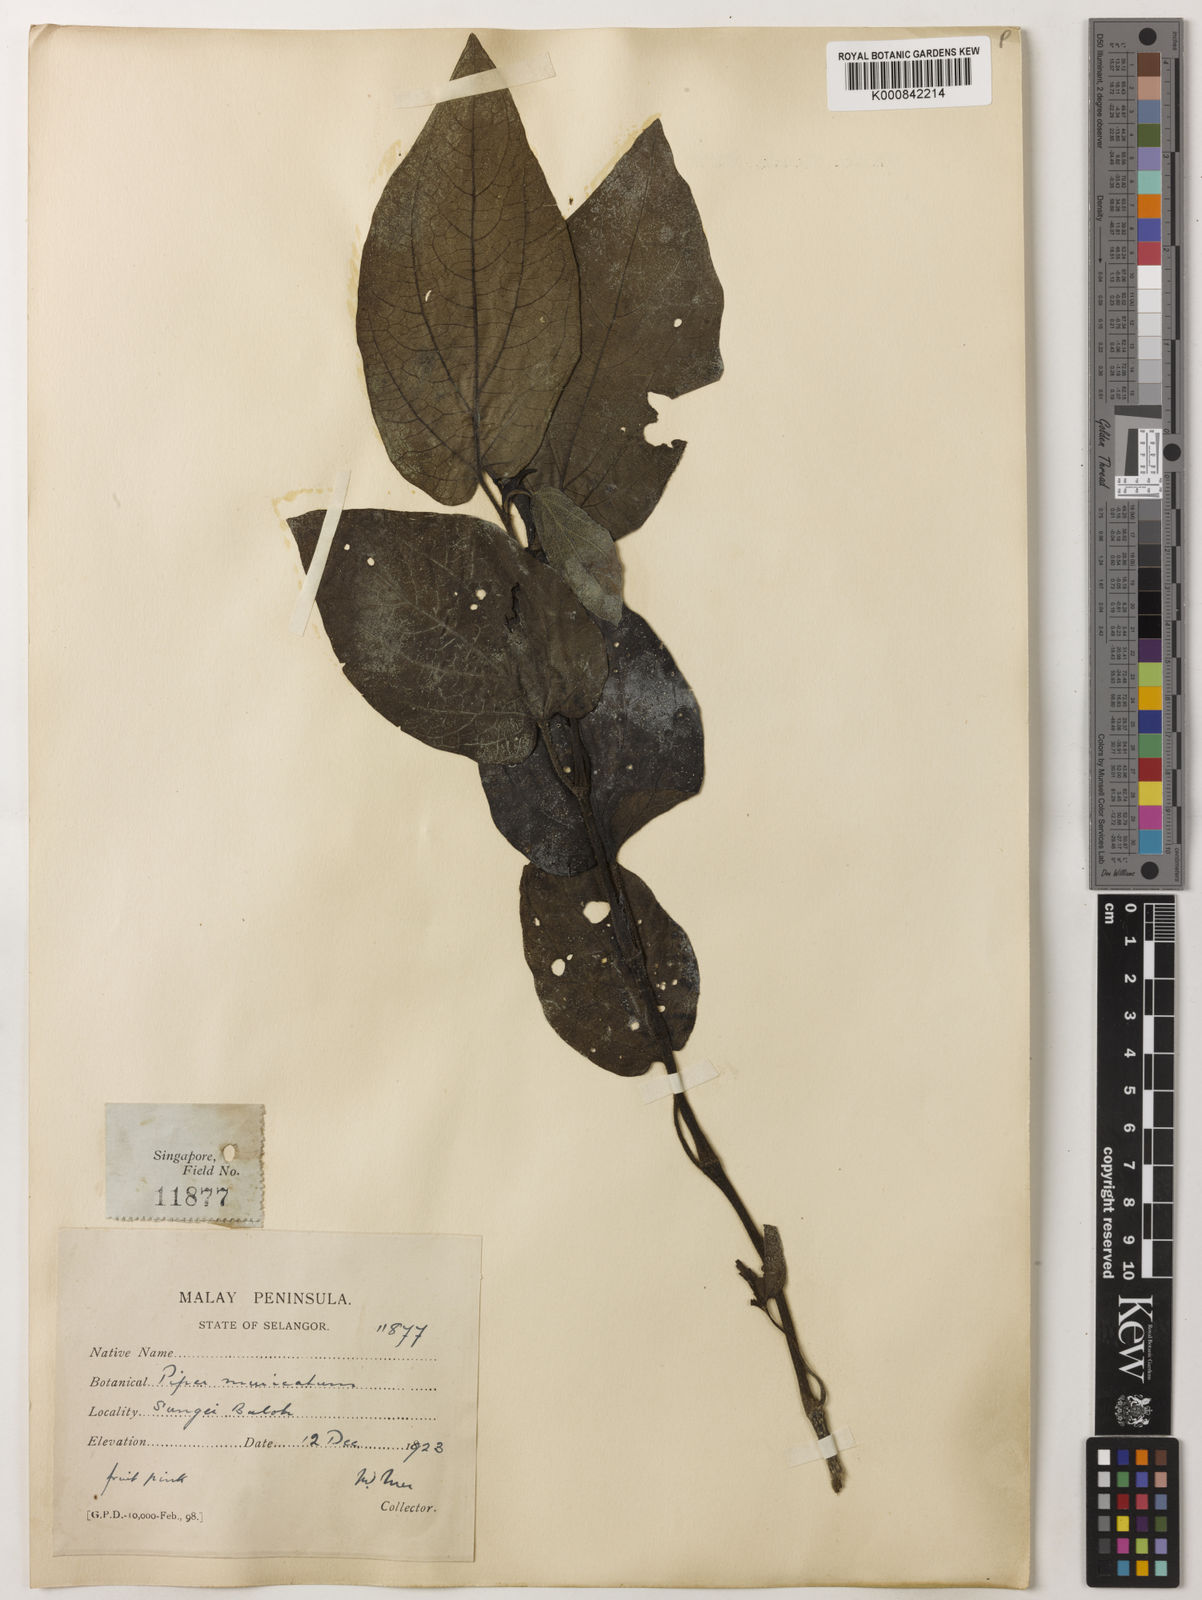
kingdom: Plantae
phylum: Tracheophyta
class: Magnoliopsida
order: Piperales
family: Piperaceae
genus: Piper
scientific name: Piper muricatum
